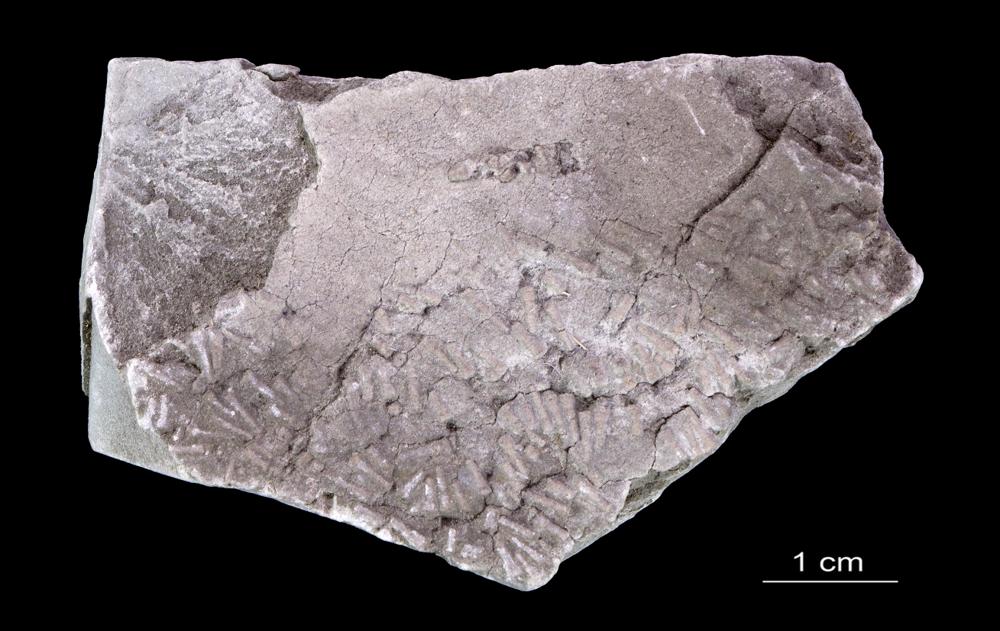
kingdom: Animalia
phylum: Annelida
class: Polychaeta
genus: Volborthella
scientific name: Volborthella tenuis
